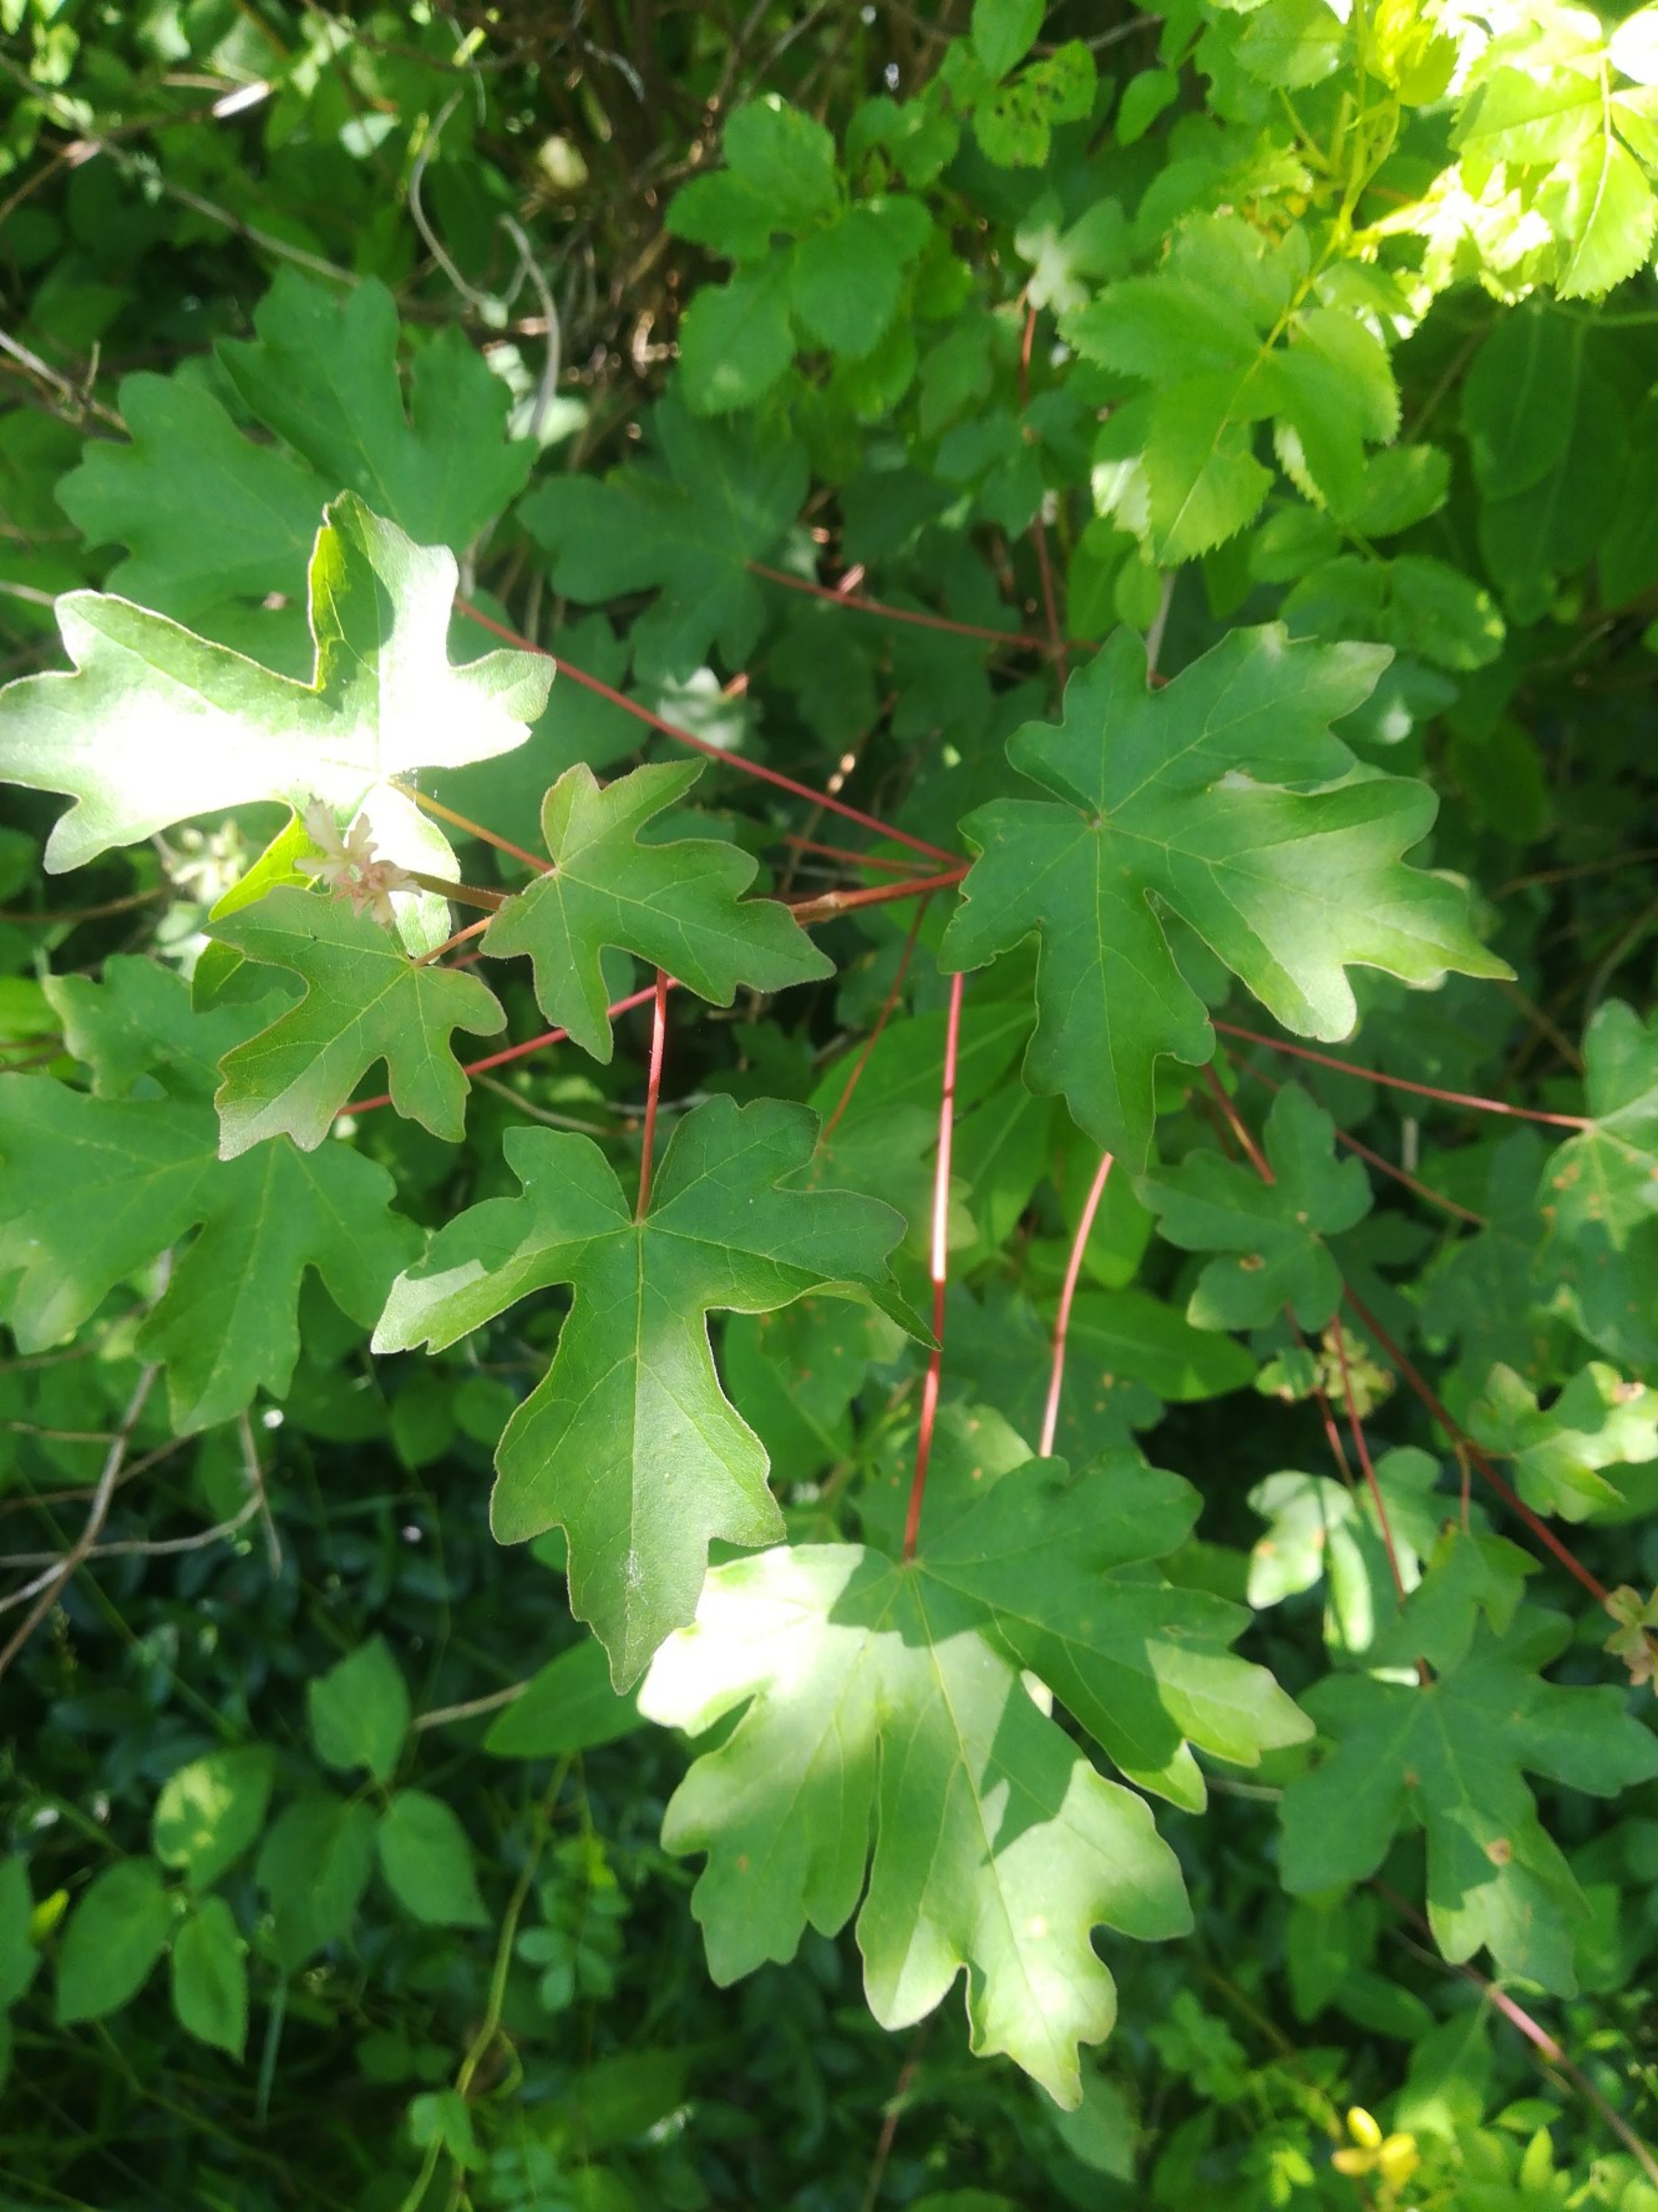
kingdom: Plantae
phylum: Tracheophyta
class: Magnoliopsida
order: Sapindales
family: Sapindaceae
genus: Acer
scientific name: Acer campestre
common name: Navr
